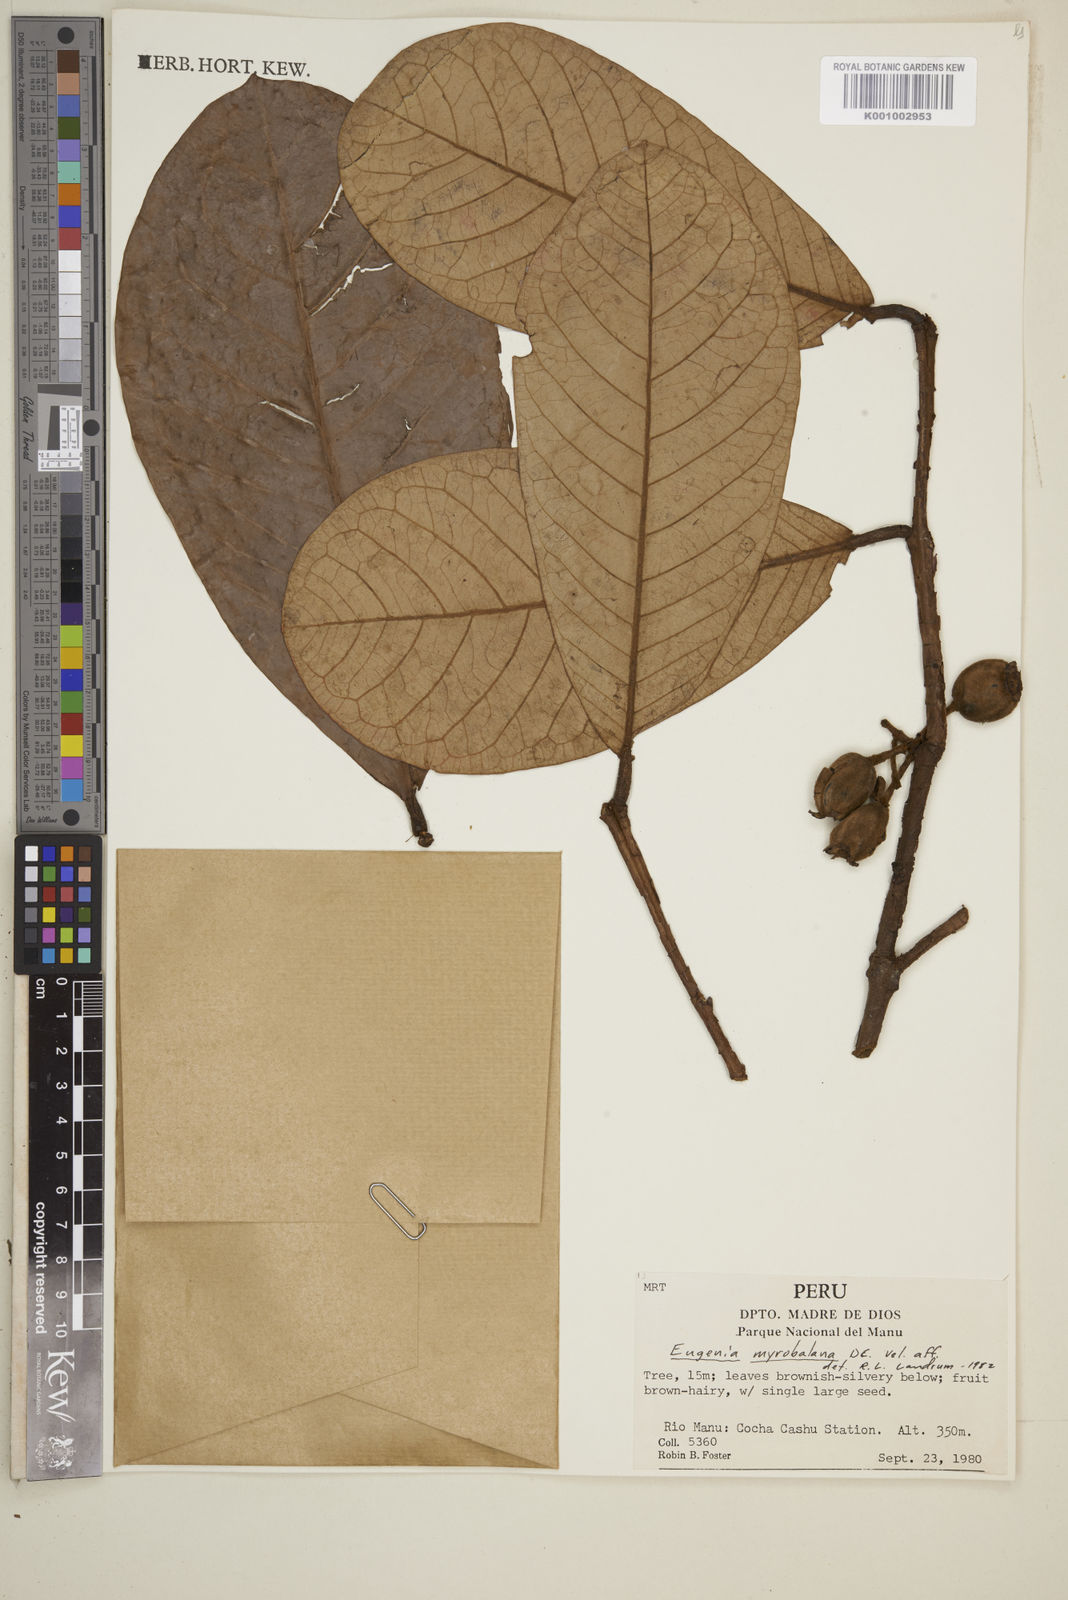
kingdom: Plantae
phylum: Tracheophyta
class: Magnoliopsida
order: Myrtales
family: Myrtaceae
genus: Eugenia
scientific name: Eugenia myrobalana
